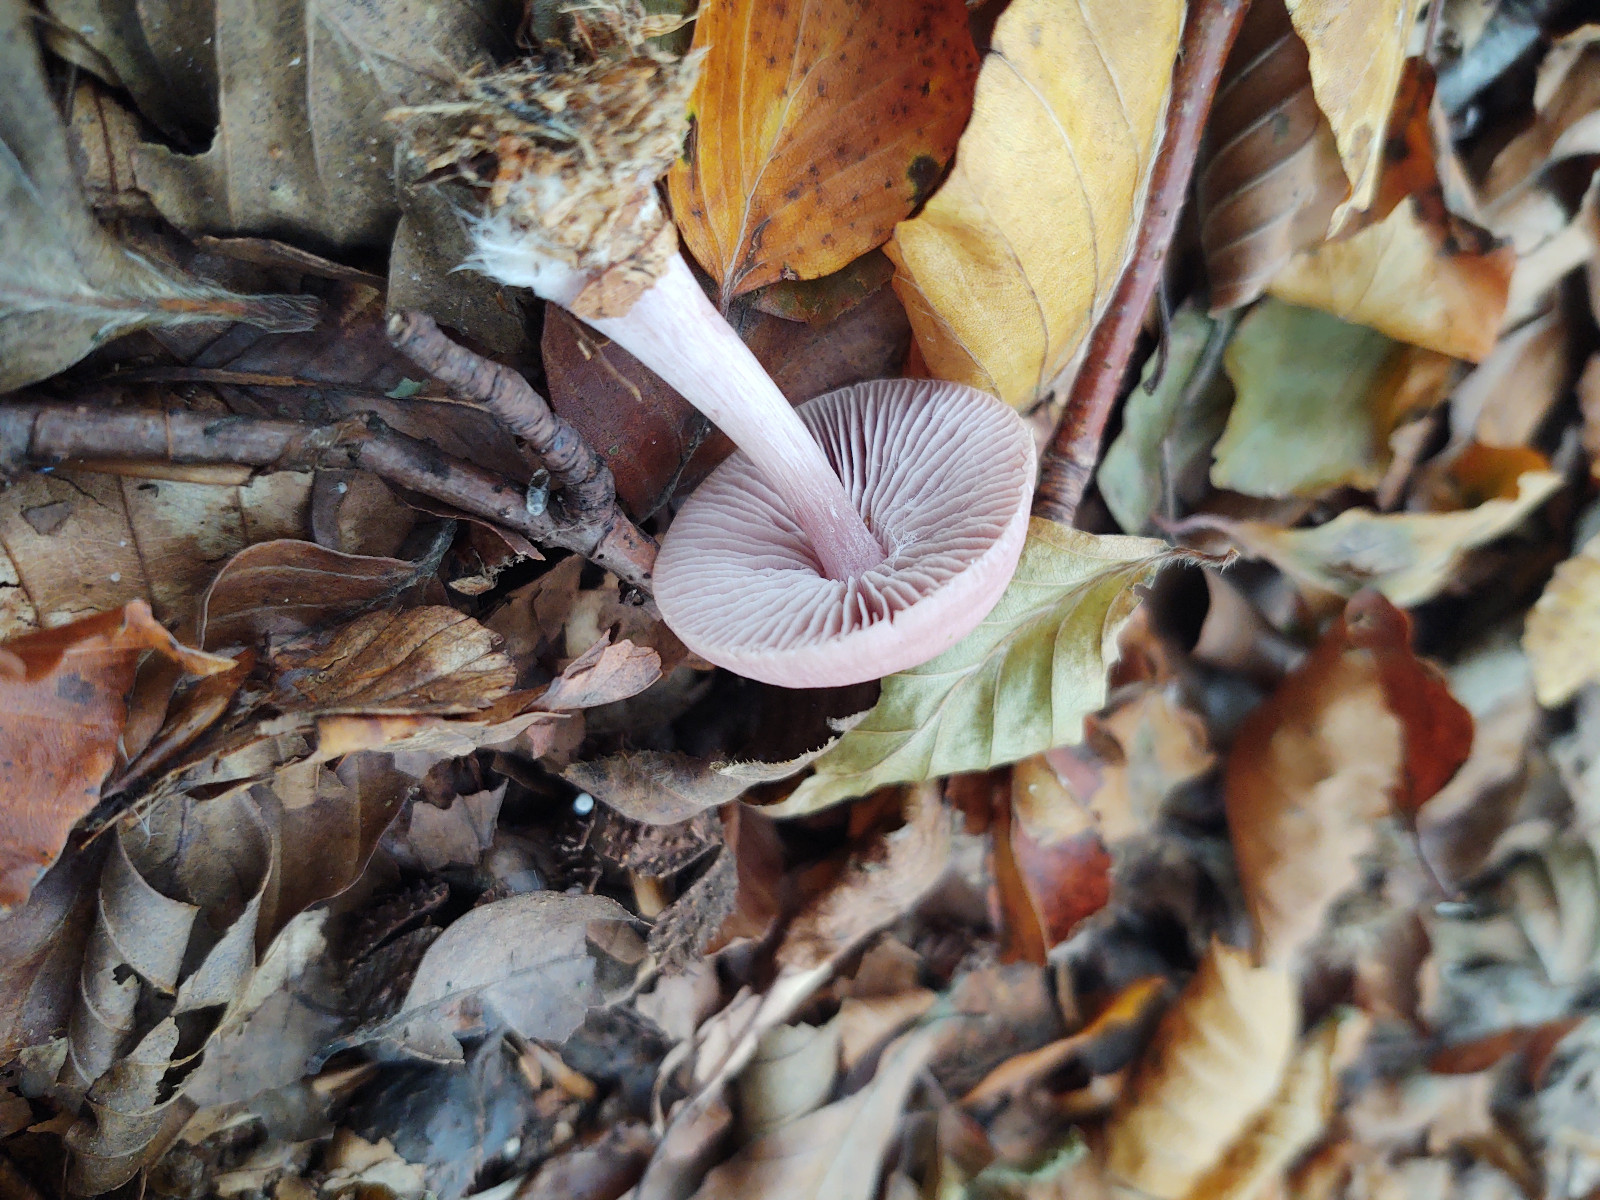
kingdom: Fungi
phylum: Basidiomycota
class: Agaricomycetes
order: Agaricales
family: Mycenaceae
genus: Mycena
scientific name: Mycena rosea
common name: rosa huesvamp
